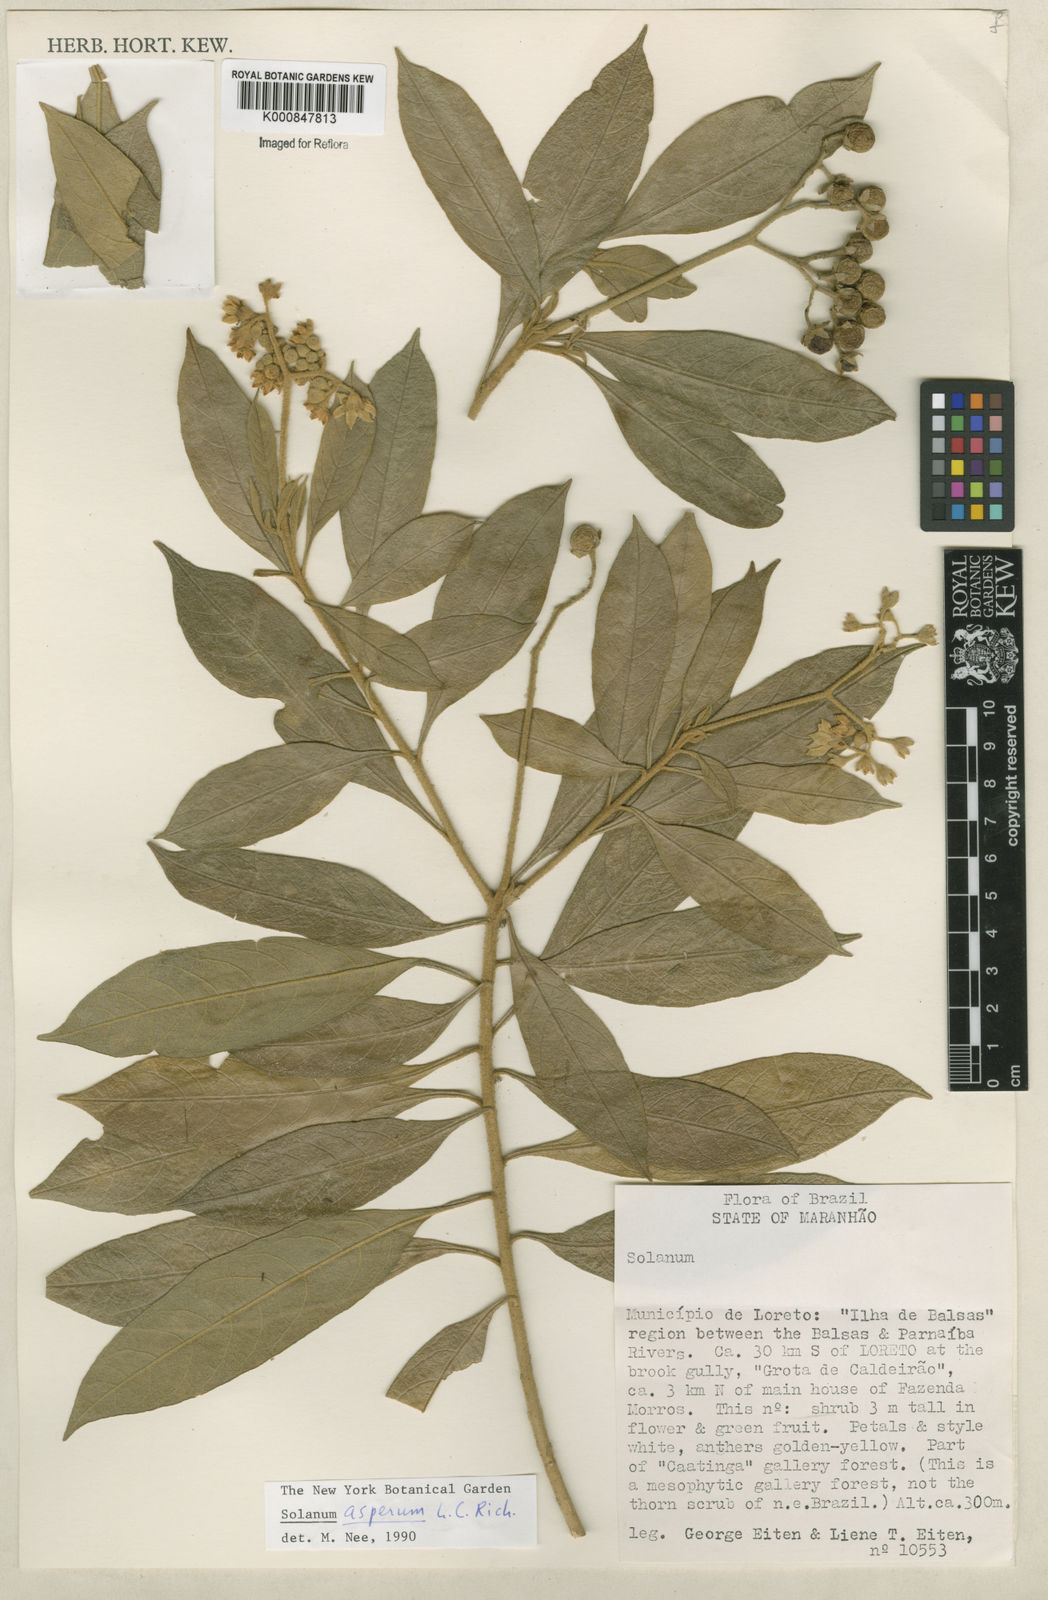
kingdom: Plantae
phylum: Tracheophyta
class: Magnoliopsida
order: Solanales
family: Solanaceae
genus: Solanum
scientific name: Solanum asperum
